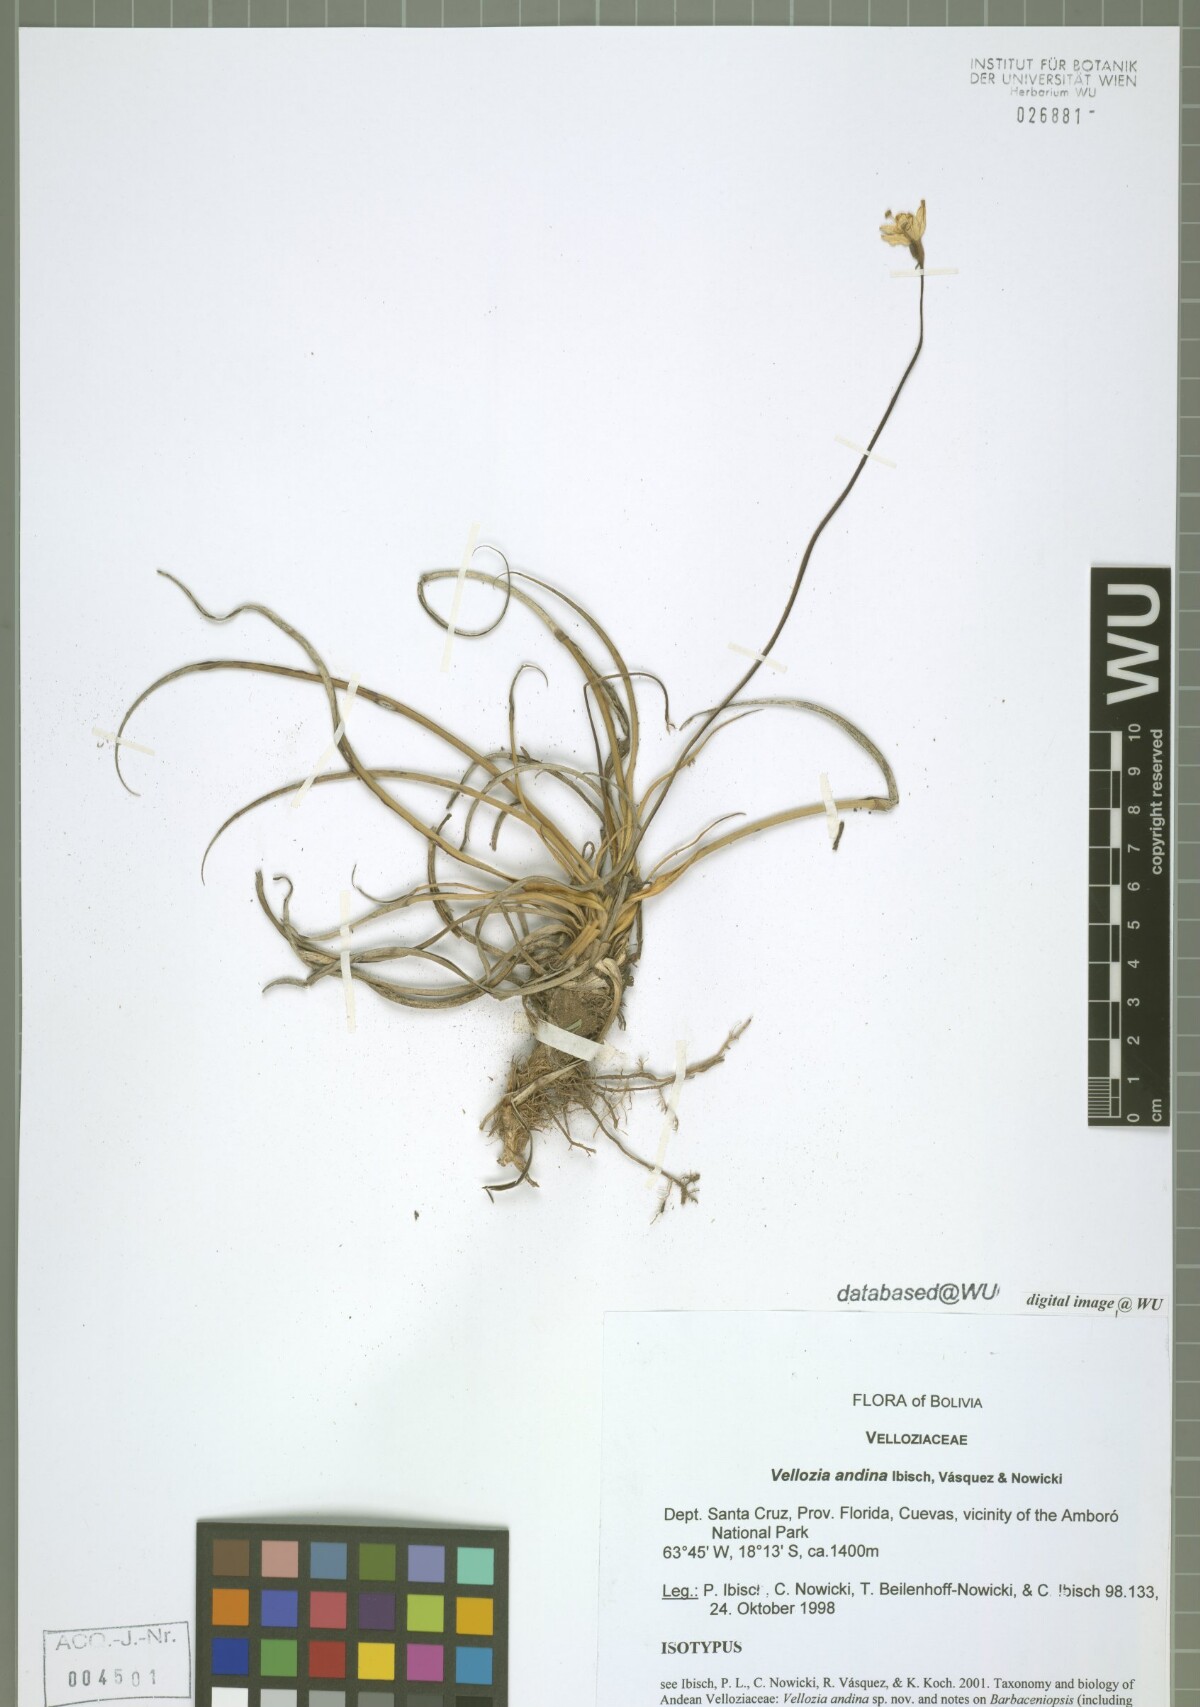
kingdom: Plantae
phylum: Tracheophyta
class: Liliopsida
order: Pandanales
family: Velloziaceae
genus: Vellozia
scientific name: Vellozia andina
